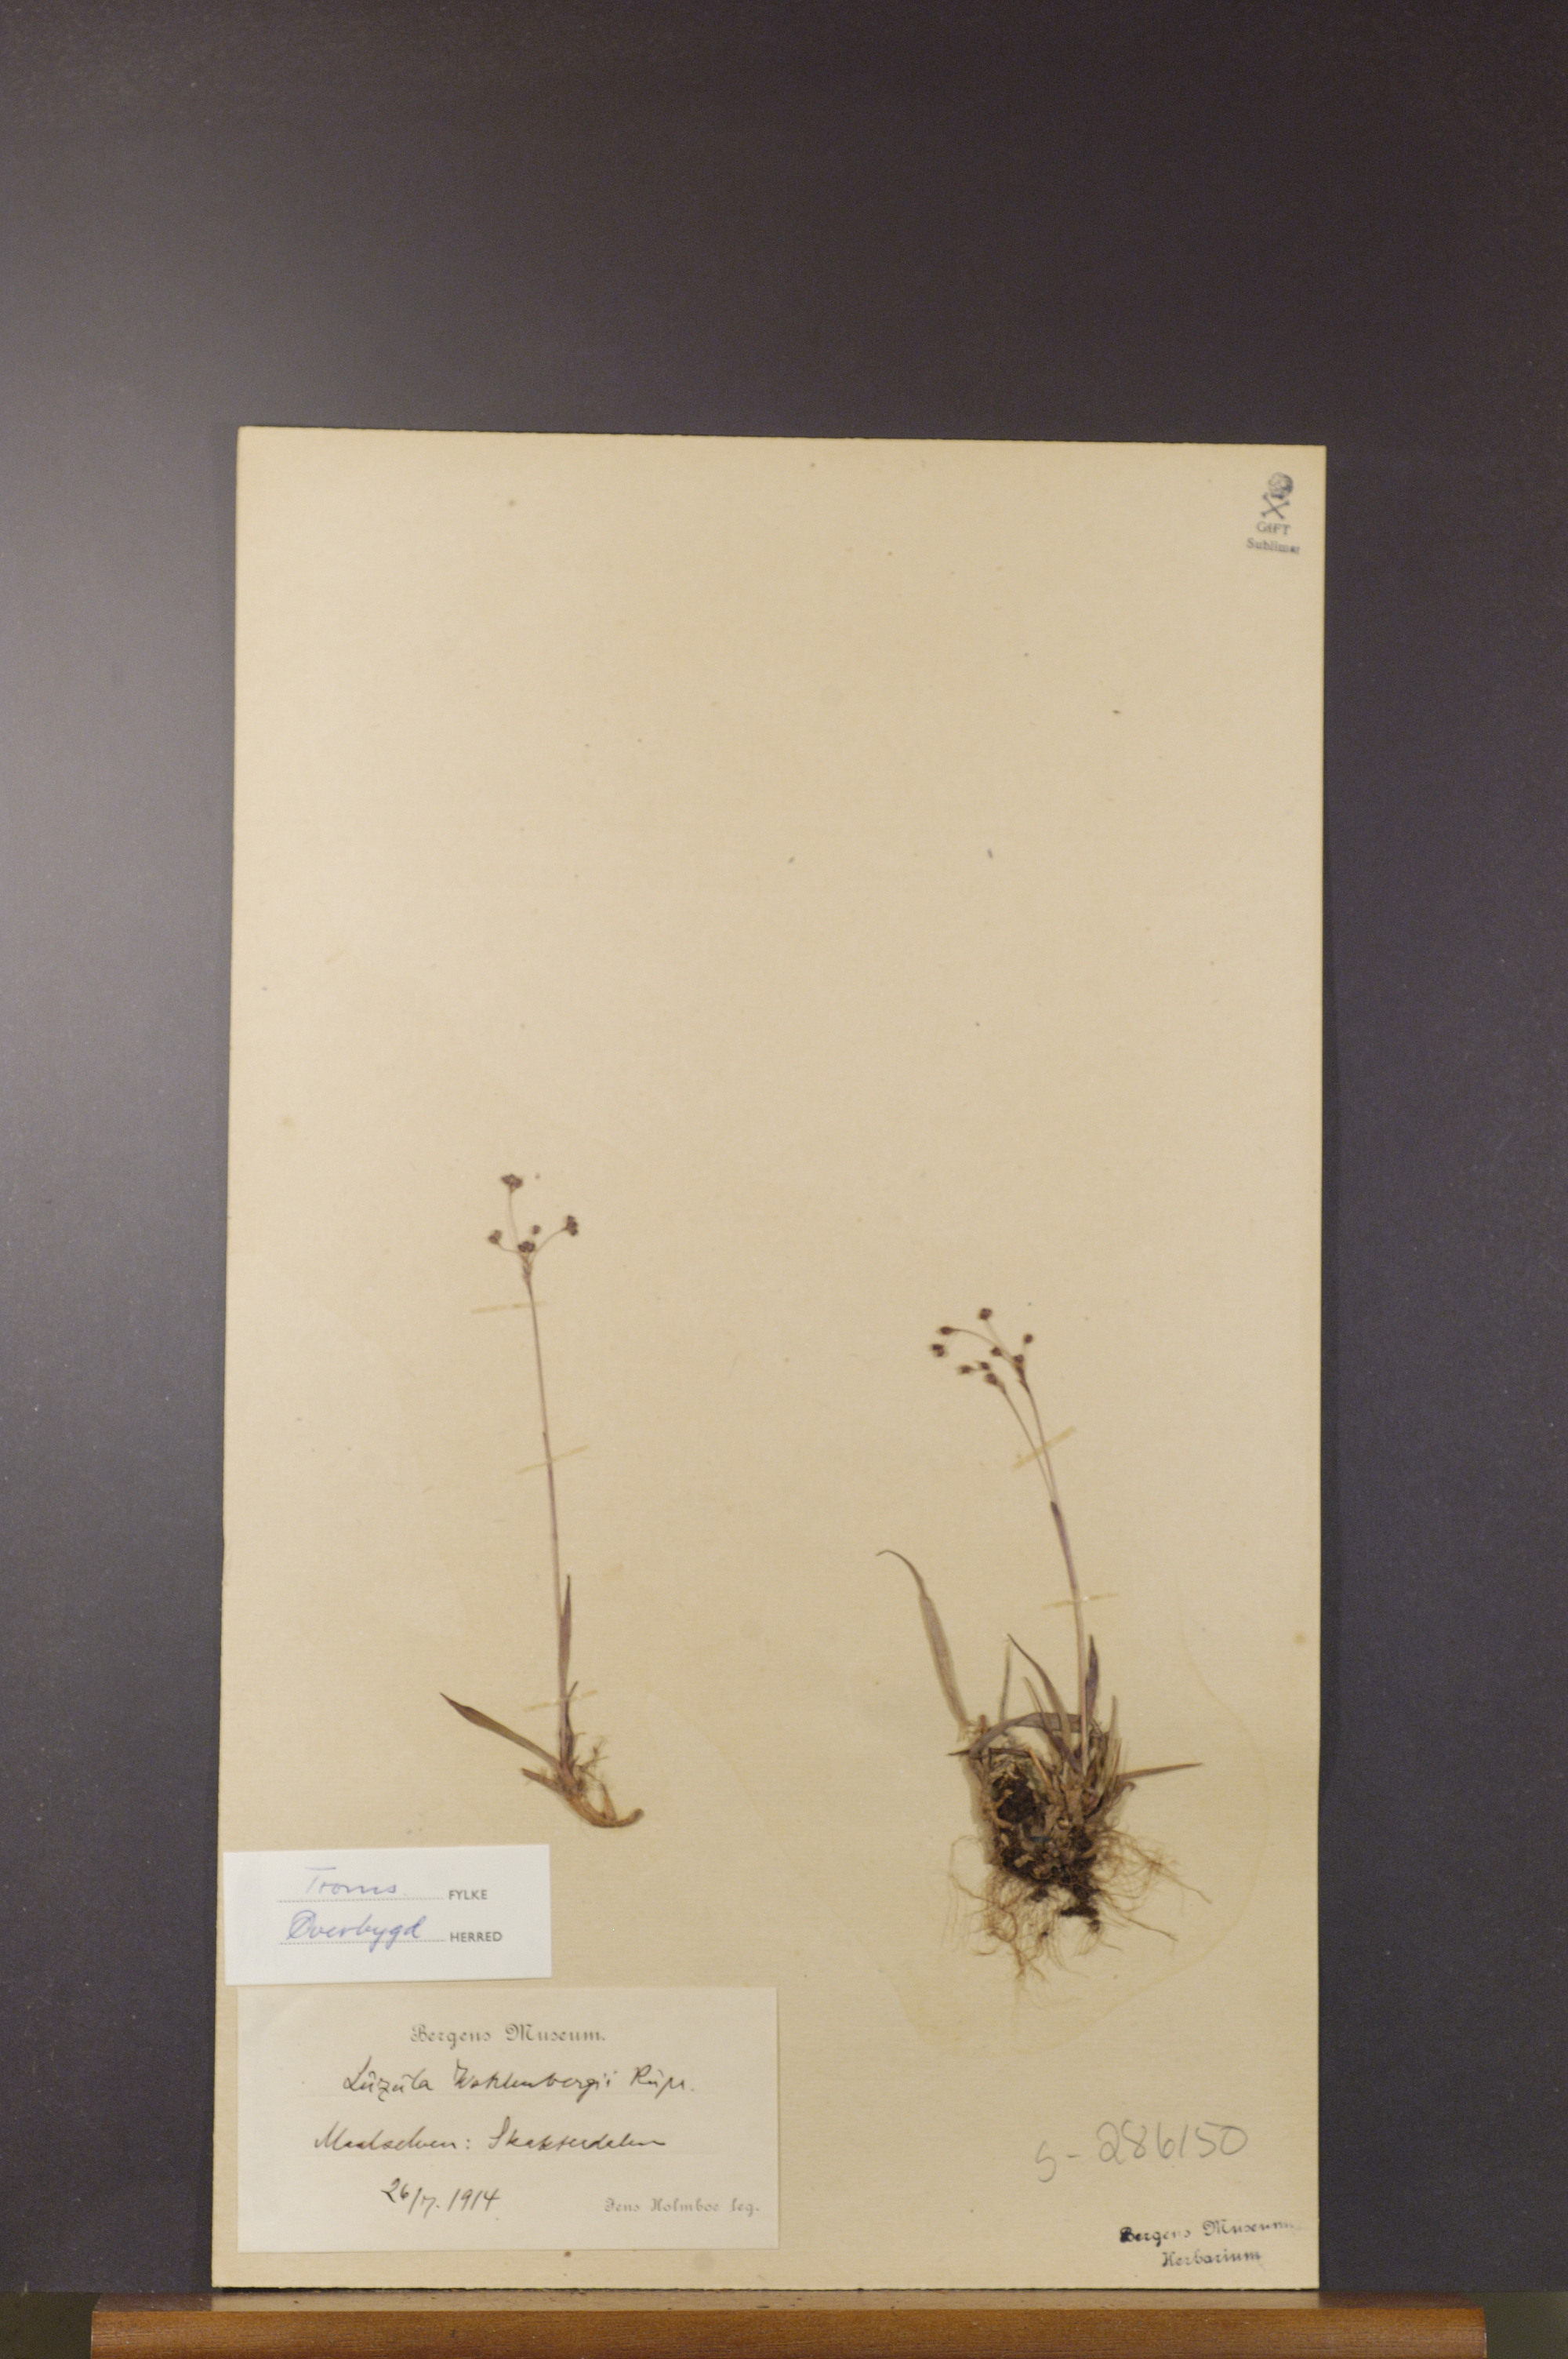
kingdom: Plantae
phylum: Tracheophyta
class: Liliopsida
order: Poales
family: Juncaceae
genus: Luzula
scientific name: Luzula wahlenbergii
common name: Wahlenberg's wood-rush
